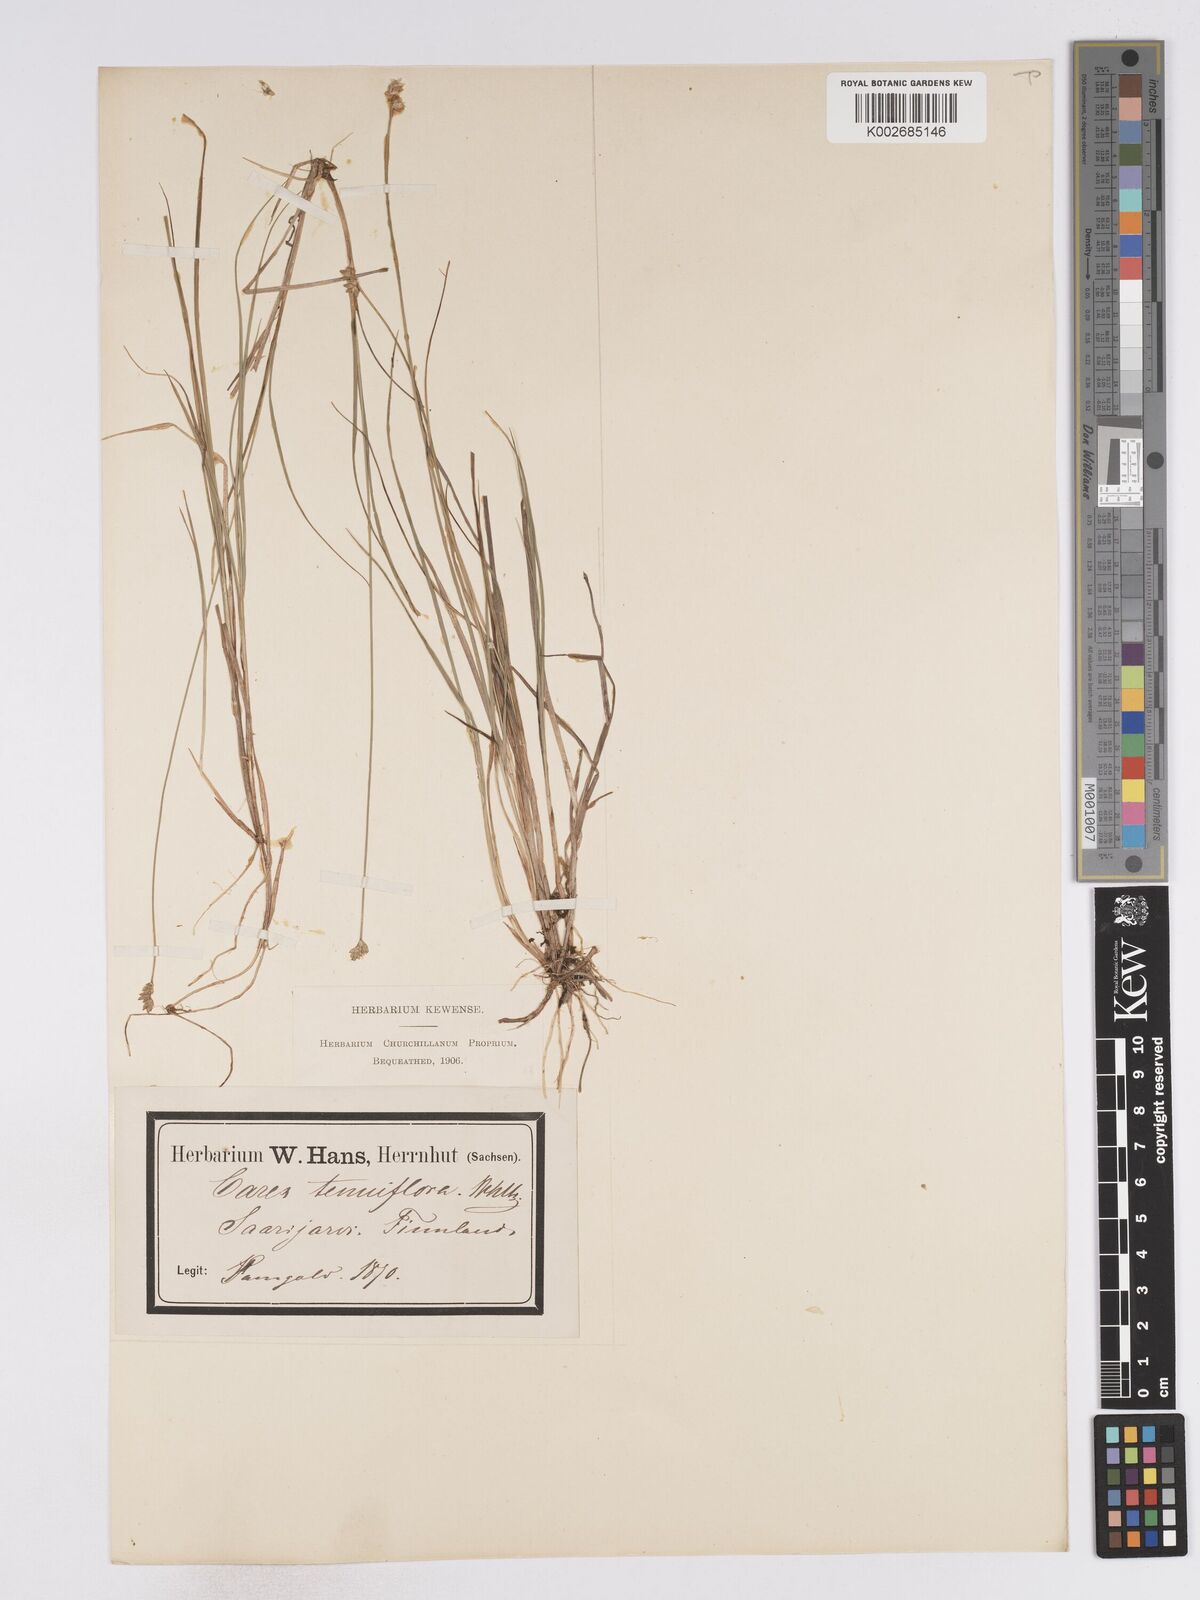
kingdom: Plantae
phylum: Tracheophyta
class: Liliopsida
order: Poales
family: Cyperaceae
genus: Carex
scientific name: Carex tenuiflora
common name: Sparse-flowered sedge
